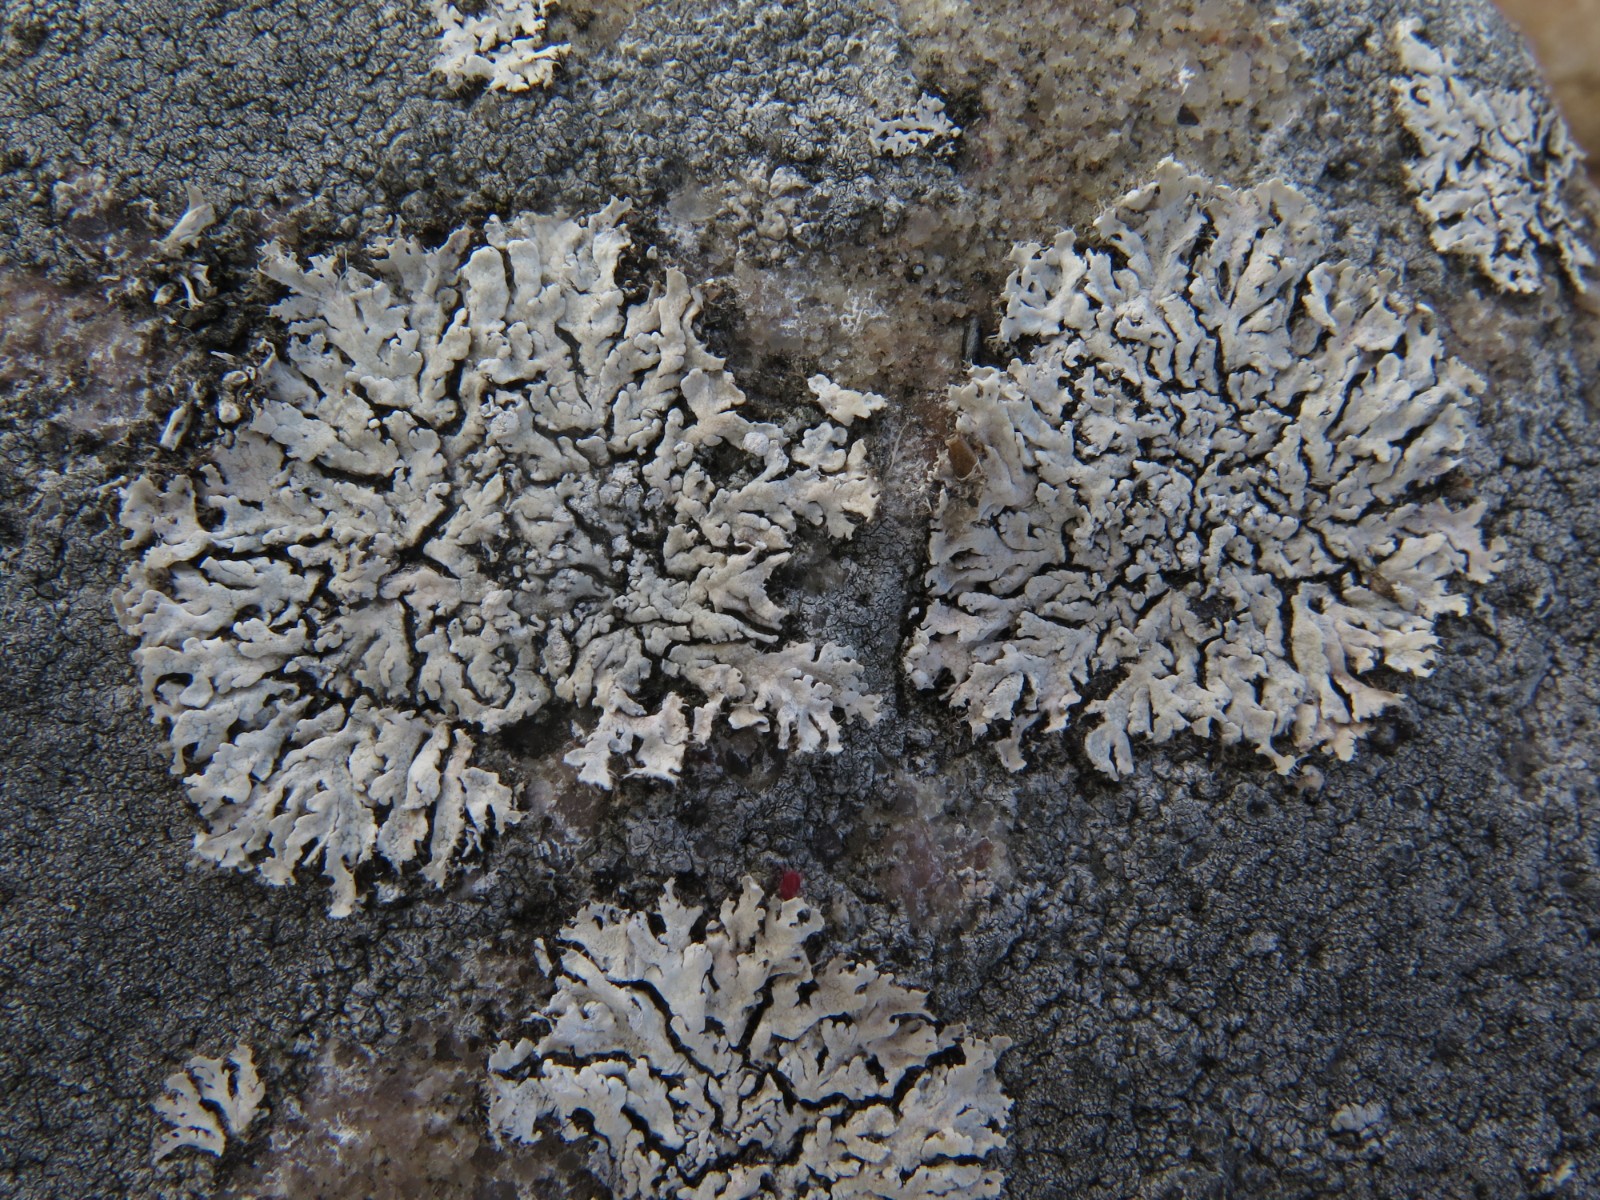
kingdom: Fungi
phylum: Ascomycota
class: Lecanoromycetes
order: Caliciales
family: Physciaceae
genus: Physcia
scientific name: Physcia dubia
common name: fuglestens-rosetlav
